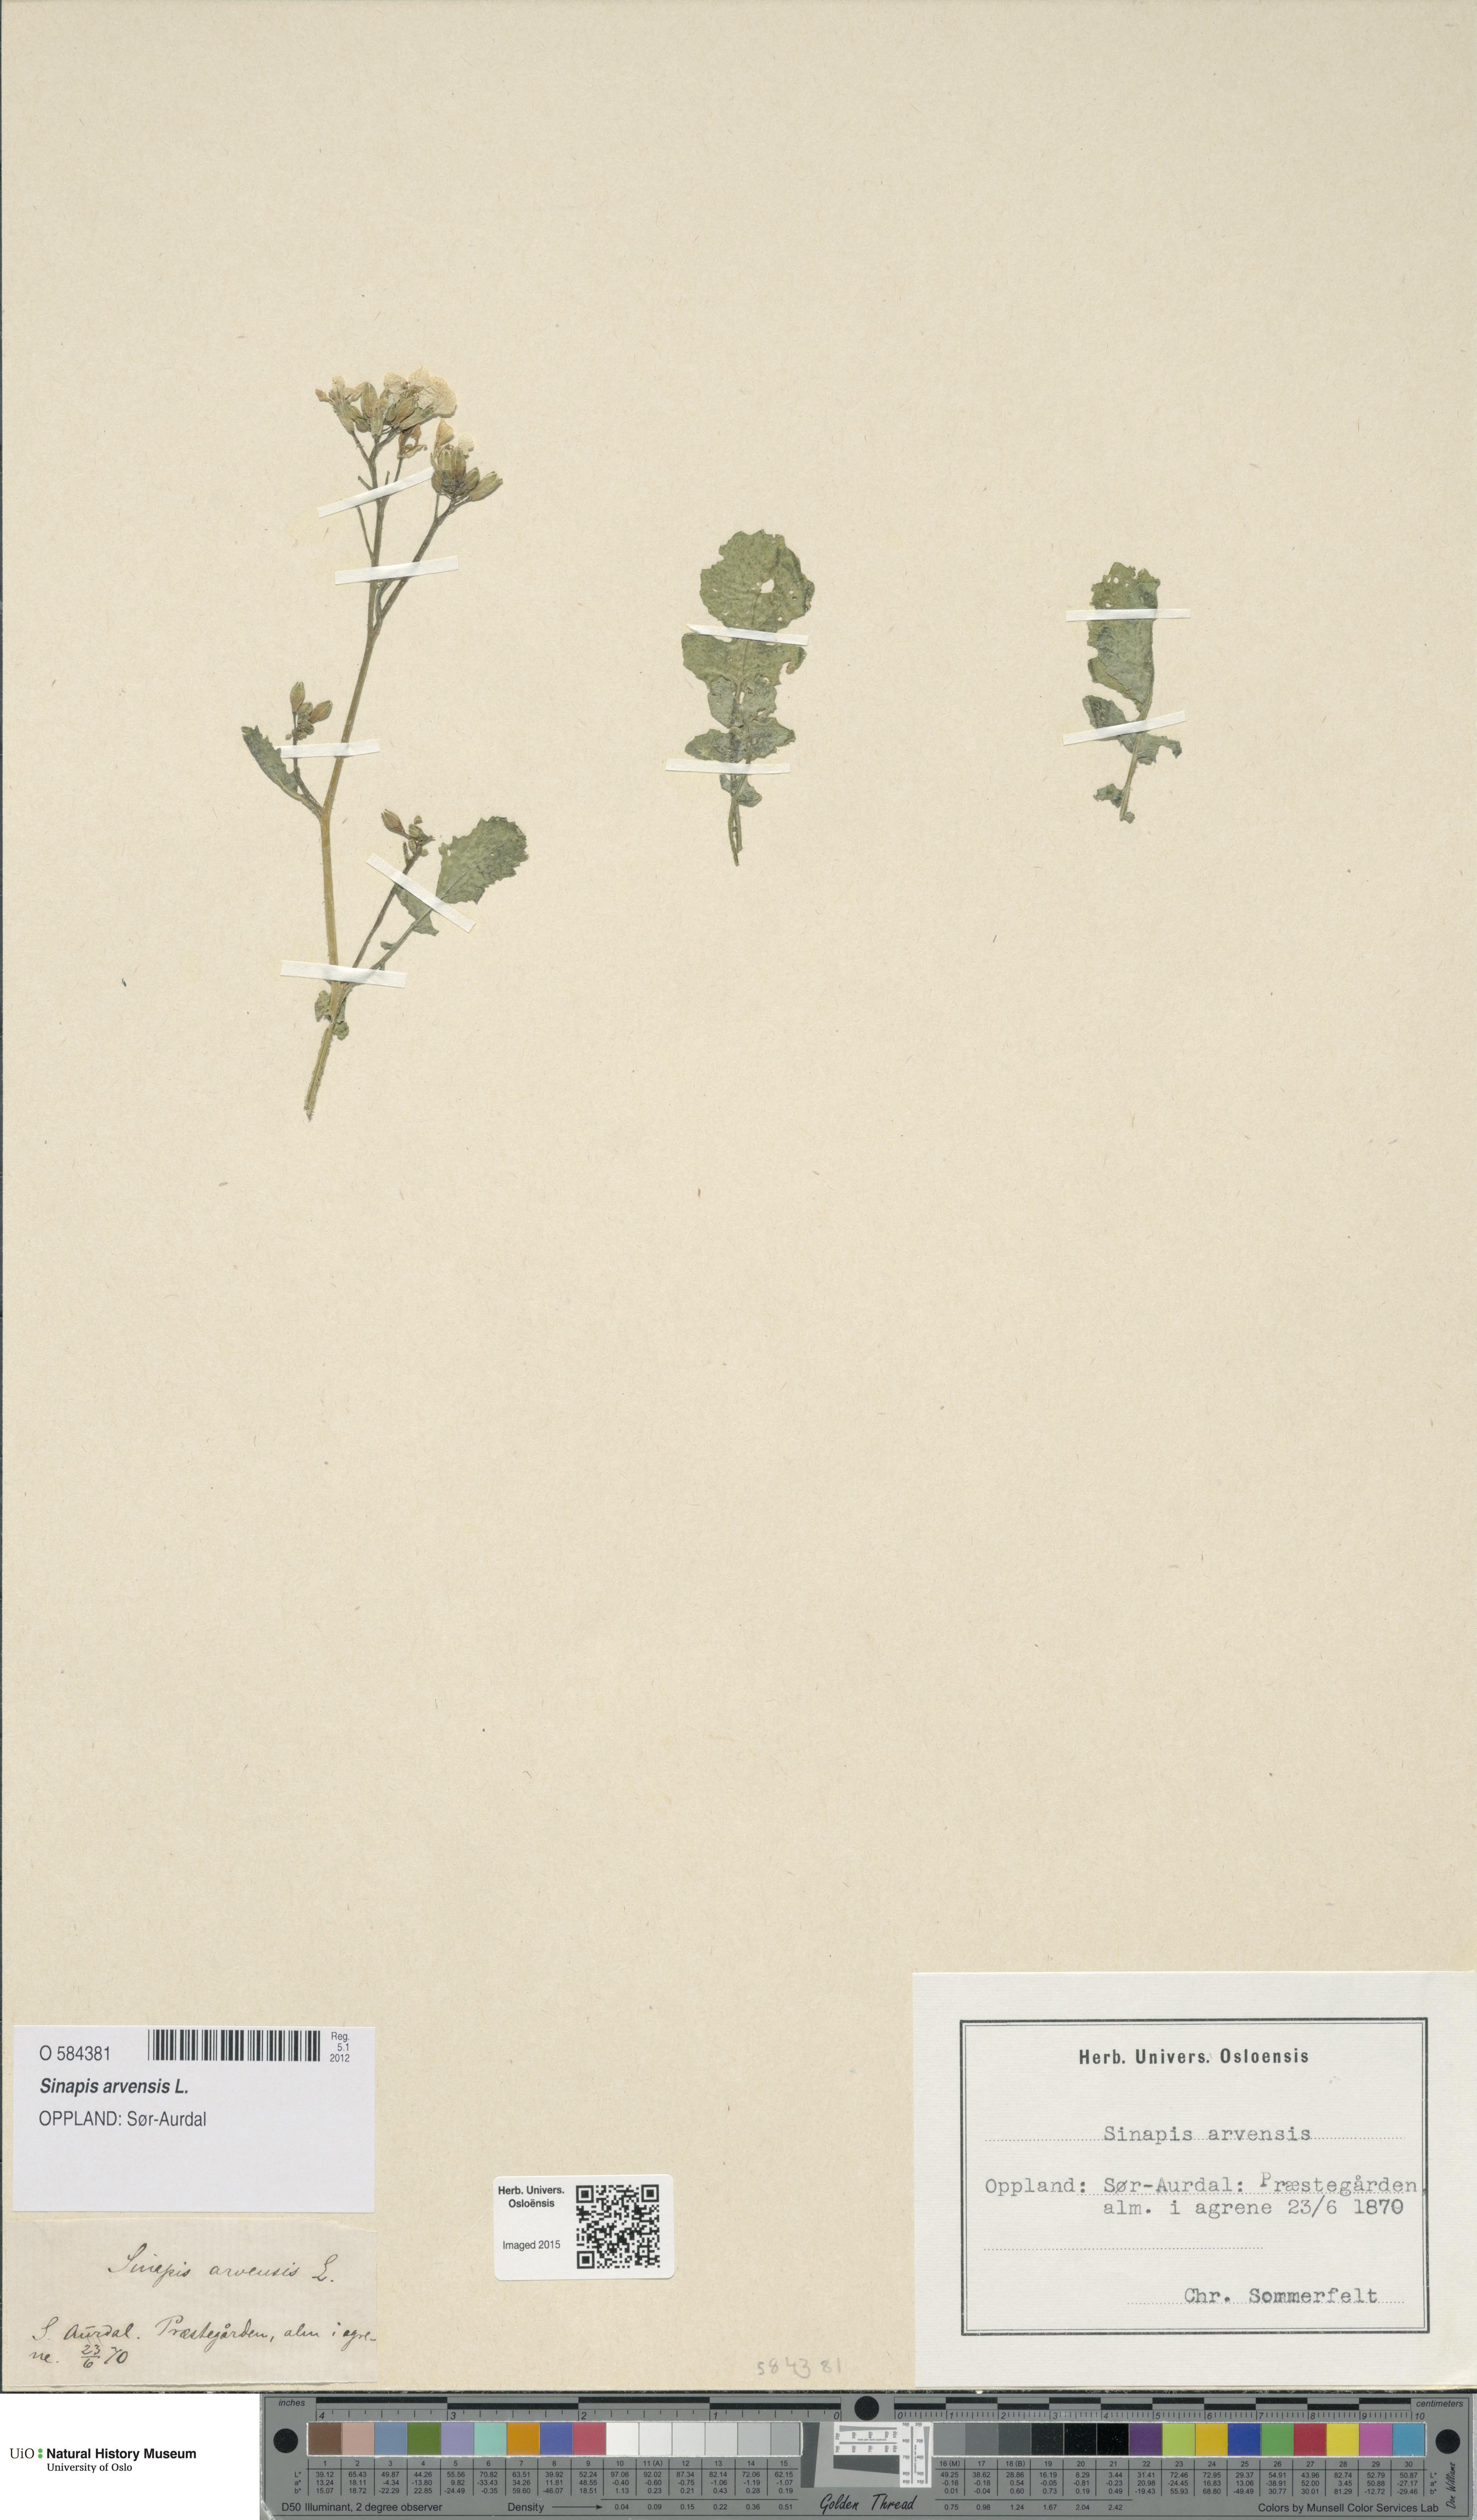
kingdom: Plantae
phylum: Tracheophyta
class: Magnoliopsida
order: Brassicales
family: Brassicaceae
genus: Sinapis
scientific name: Sinapis arvensis
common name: Charlock
